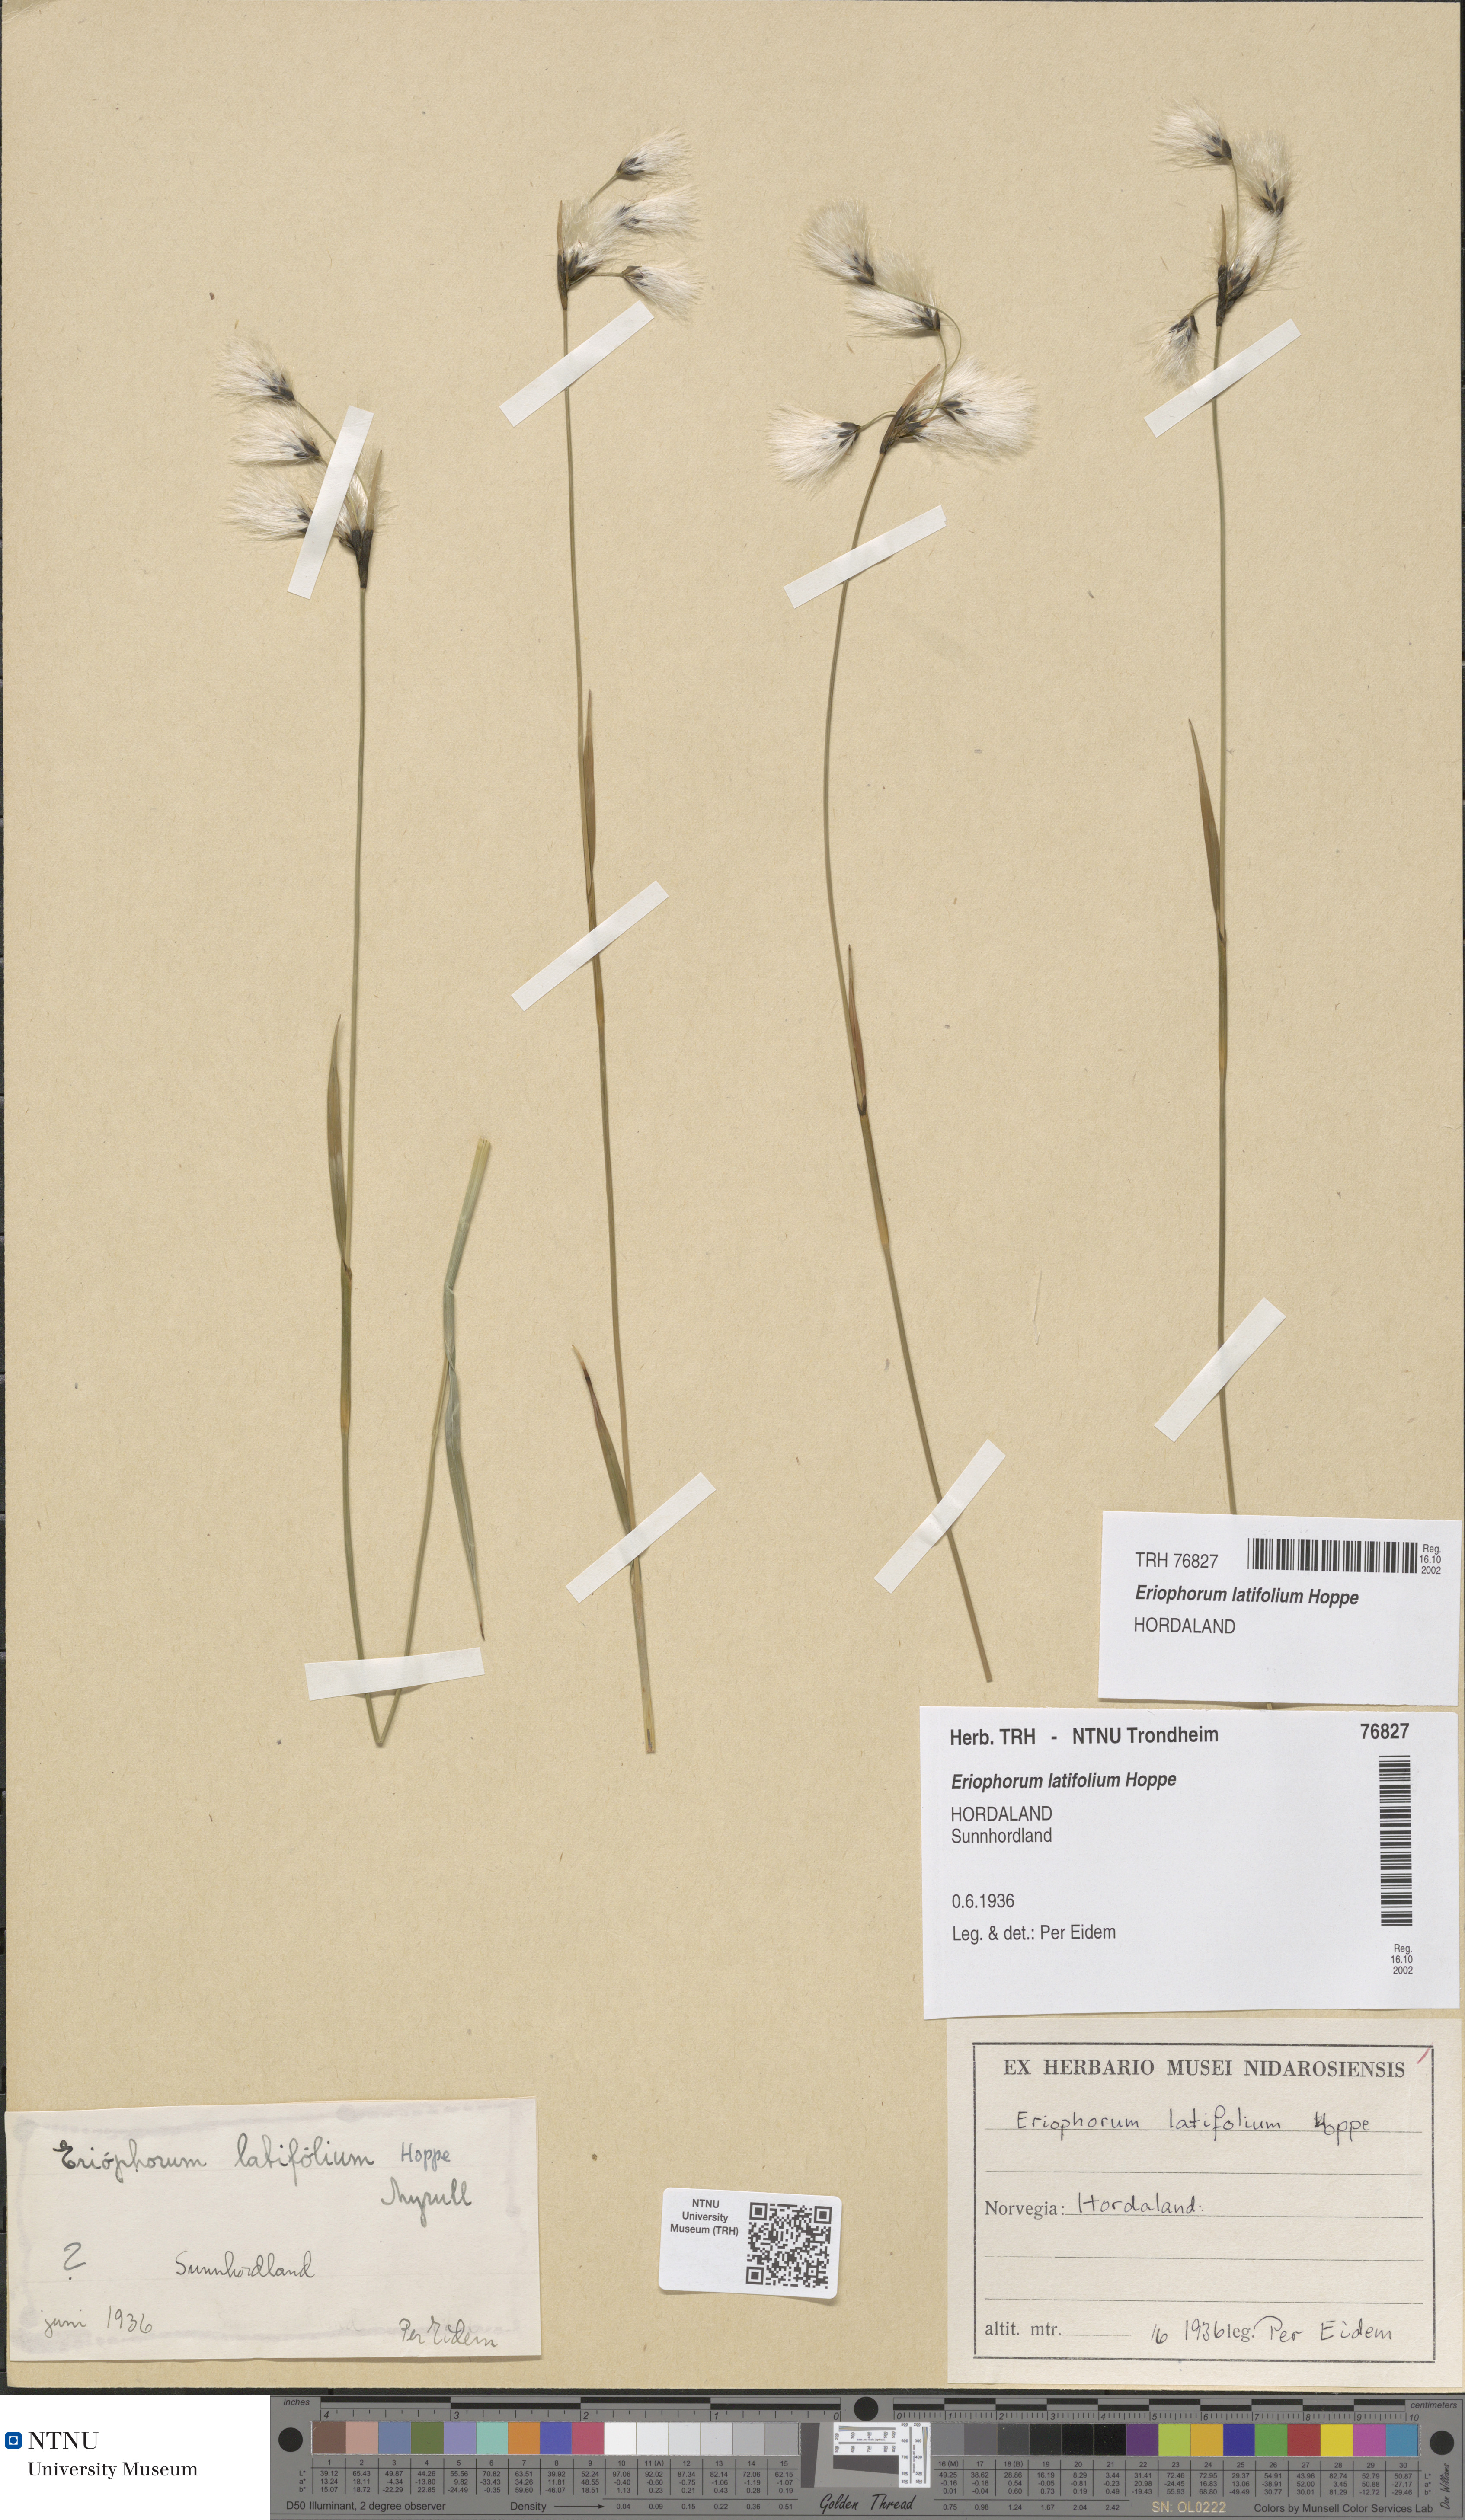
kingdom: Plantae
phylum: Tracheophyta
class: Liliopsida
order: Poales
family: Cyperaceae
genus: Eriophorum
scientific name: Eriophorum latifolium
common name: Broad-leaved cottongrass
